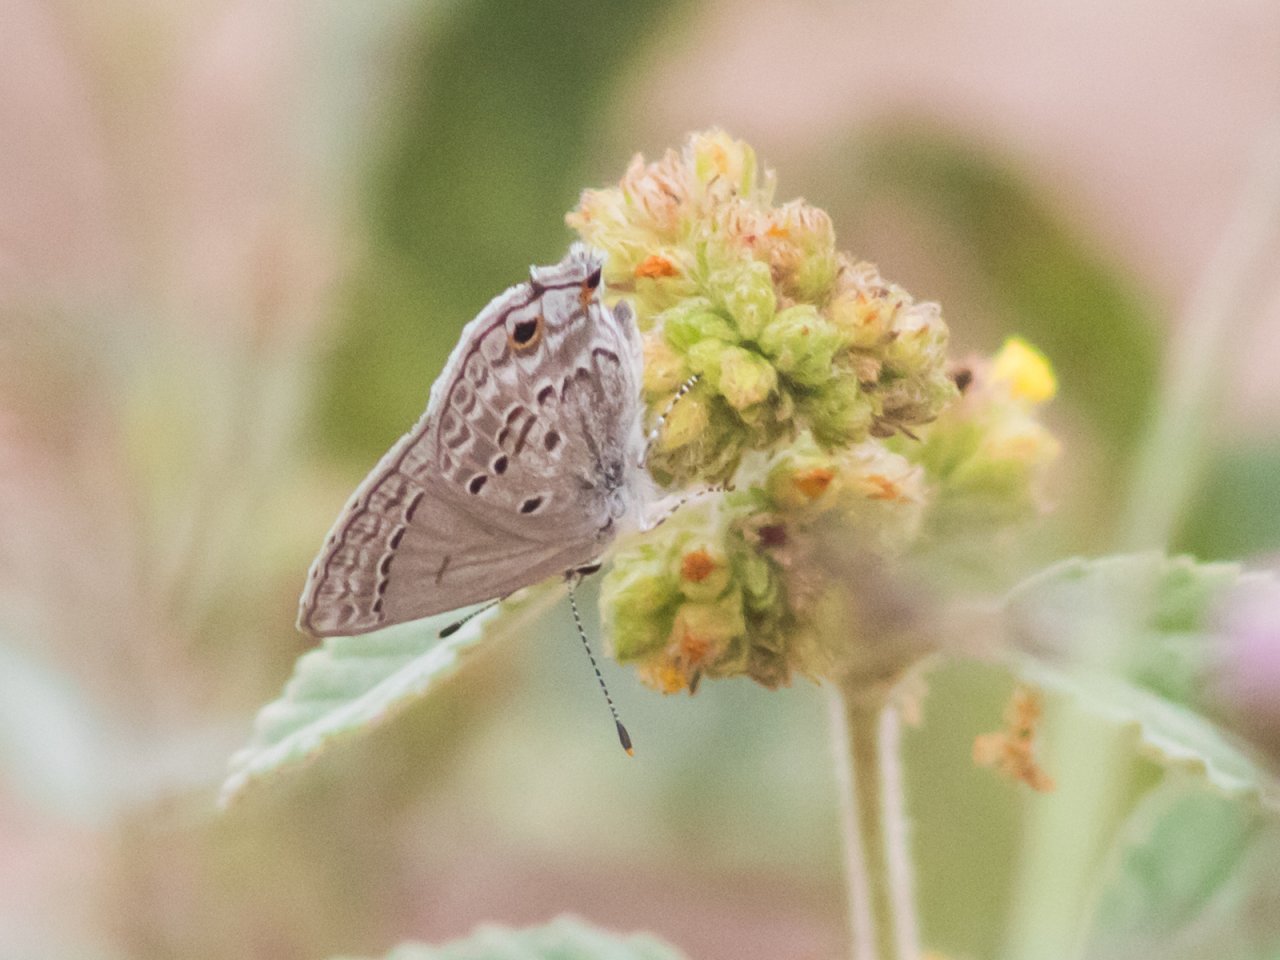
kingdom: Animalia
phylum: Arthropoda
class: Insecta
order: Lepidoptera
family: Lycaenidae
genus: Callicista
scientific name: Callicista columella
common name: Mallow Scrub-Hairstreak
